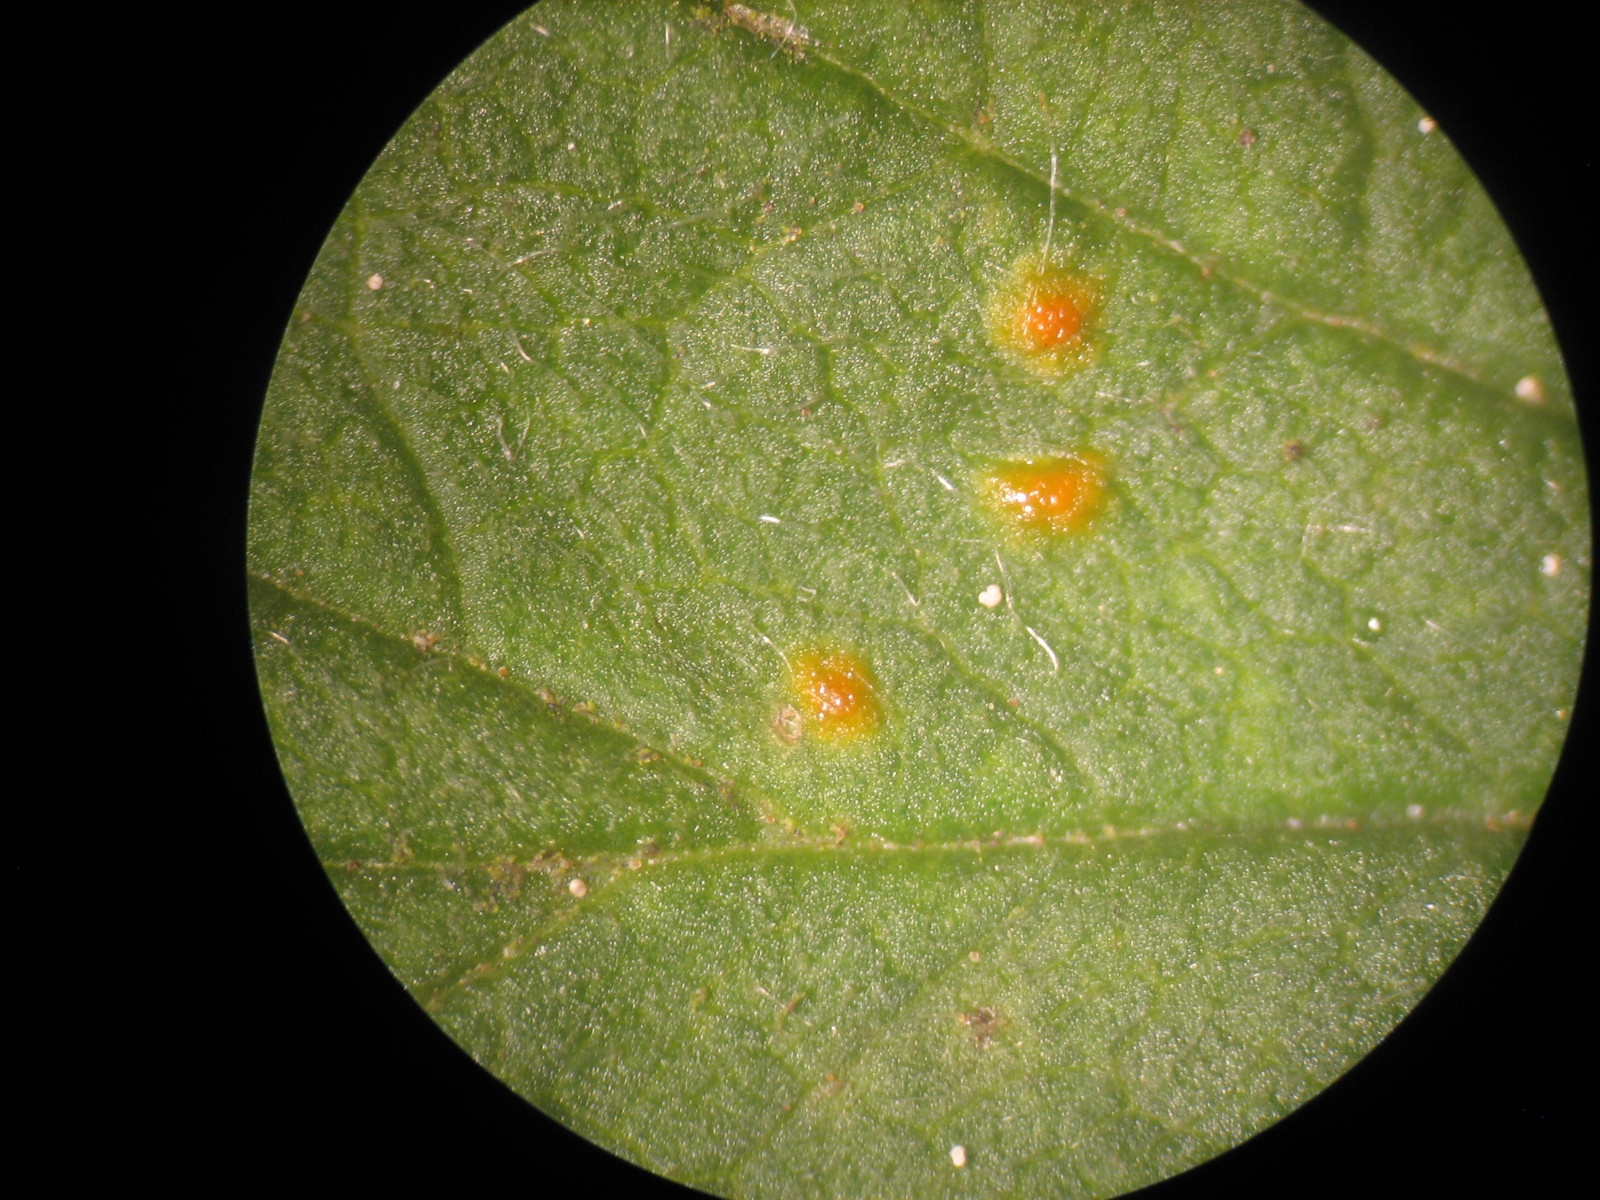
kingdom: Fungi
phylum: Basidiomycota
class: Pucciniomycetes
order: Pucciniales
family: Phragmidiaceae
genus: Phragmidium
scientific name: Phragmidium rubi-idaei
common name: hindbær-flercellerust
